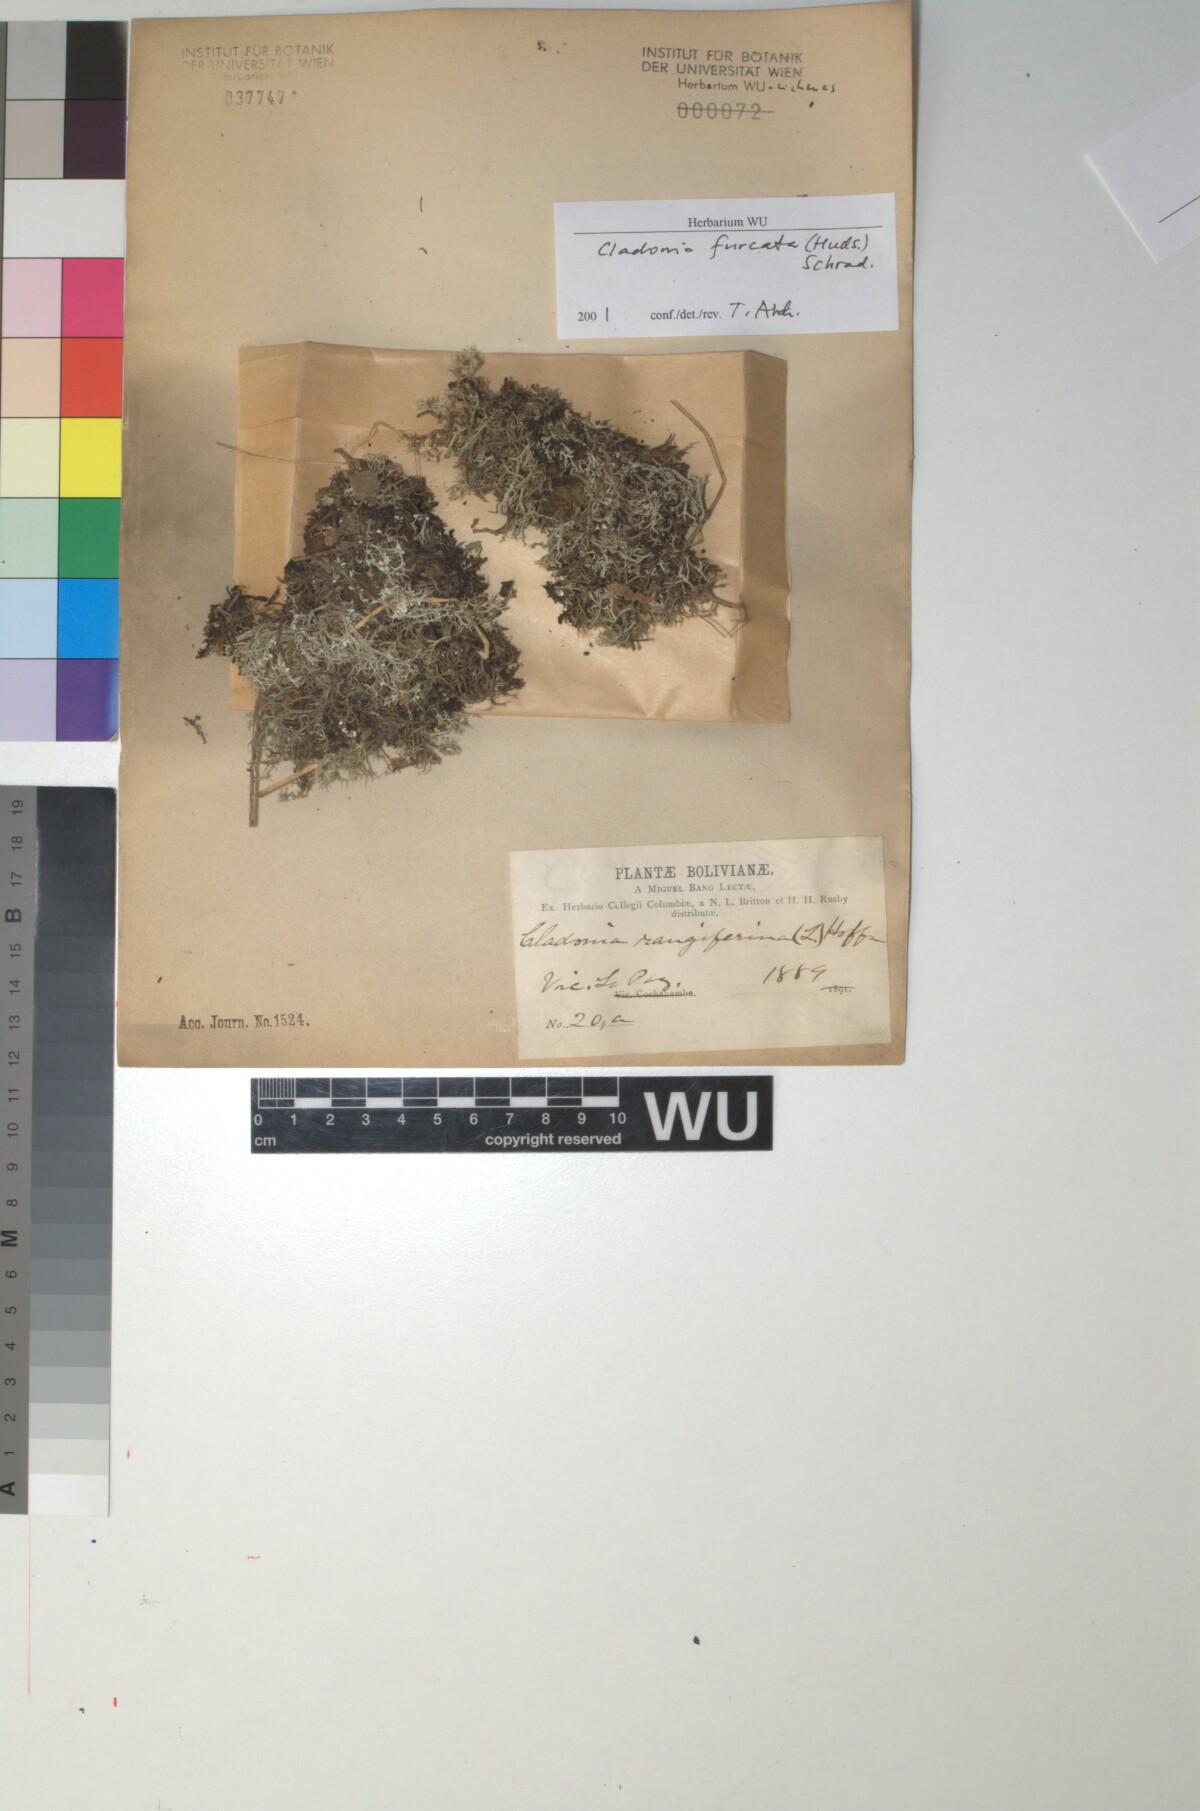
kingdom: Fungi
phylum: Ascomycota
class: Lecanoromycetes
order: Lecanorales
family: Cladoniaceae
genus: Cladonia
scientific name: Cladonia furcata
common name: Many-forked cladonia
